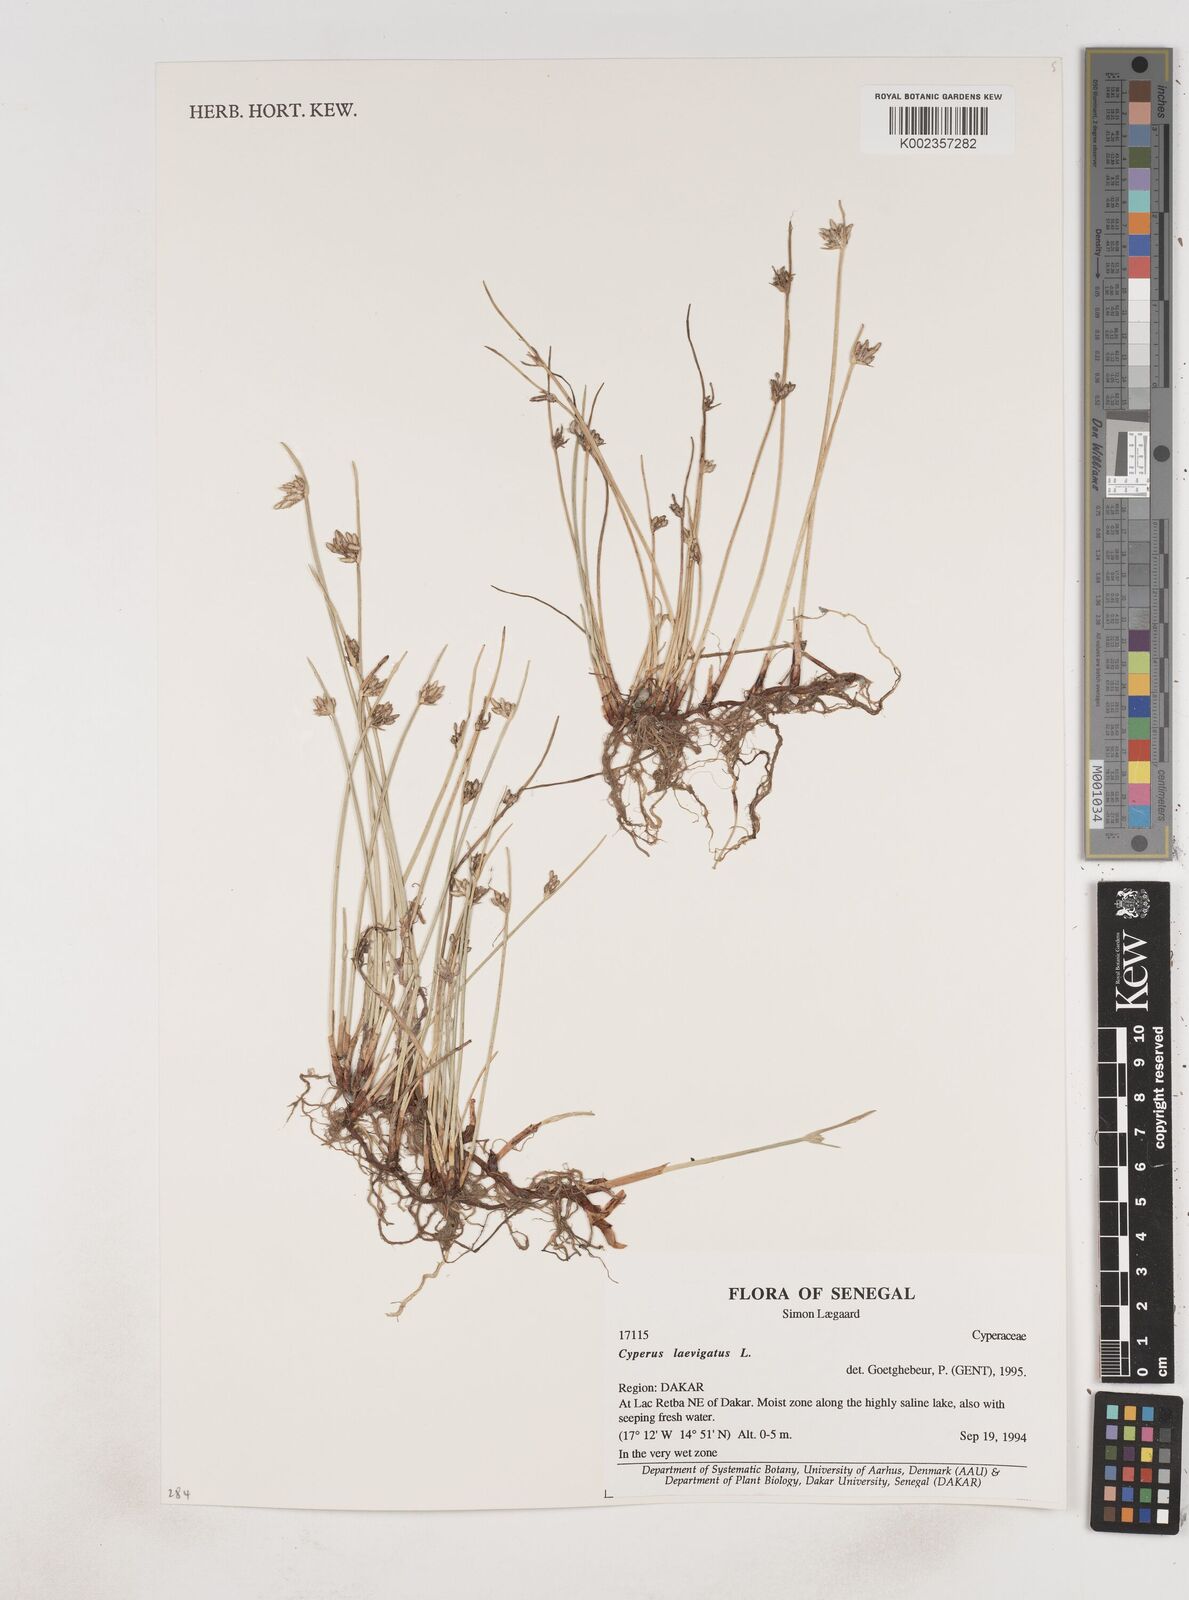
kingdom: Plantae
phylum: Tracheophyta
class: Liliopsida
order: Poales
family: Cyperaceae
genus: Cyperus
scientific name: Cyperus laevigatus
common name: Smooth flat sedge
